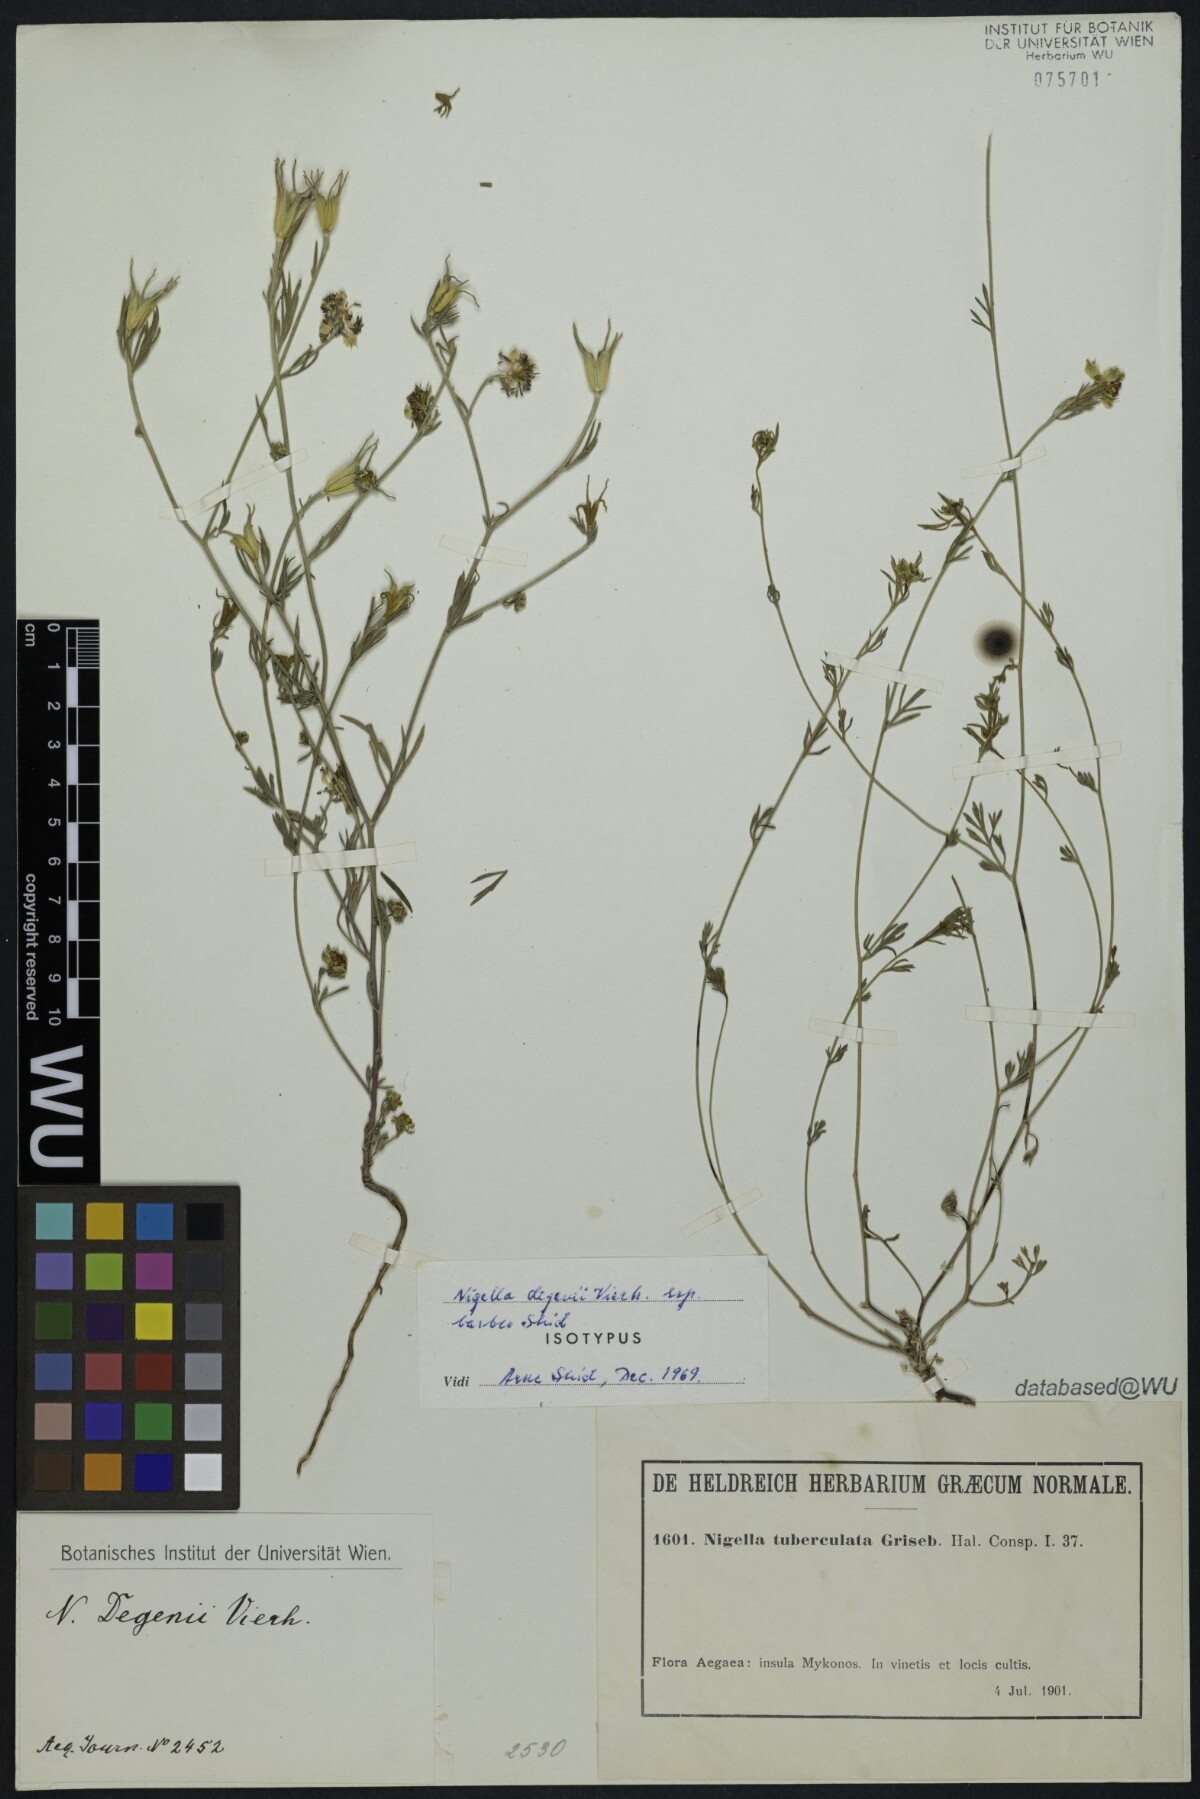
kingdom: Plantae
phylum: Tracheophyta
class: Magnoliopsida
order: Ranunculales
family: Ranunculaceae
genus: Nigella
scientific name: Nigella degenii
